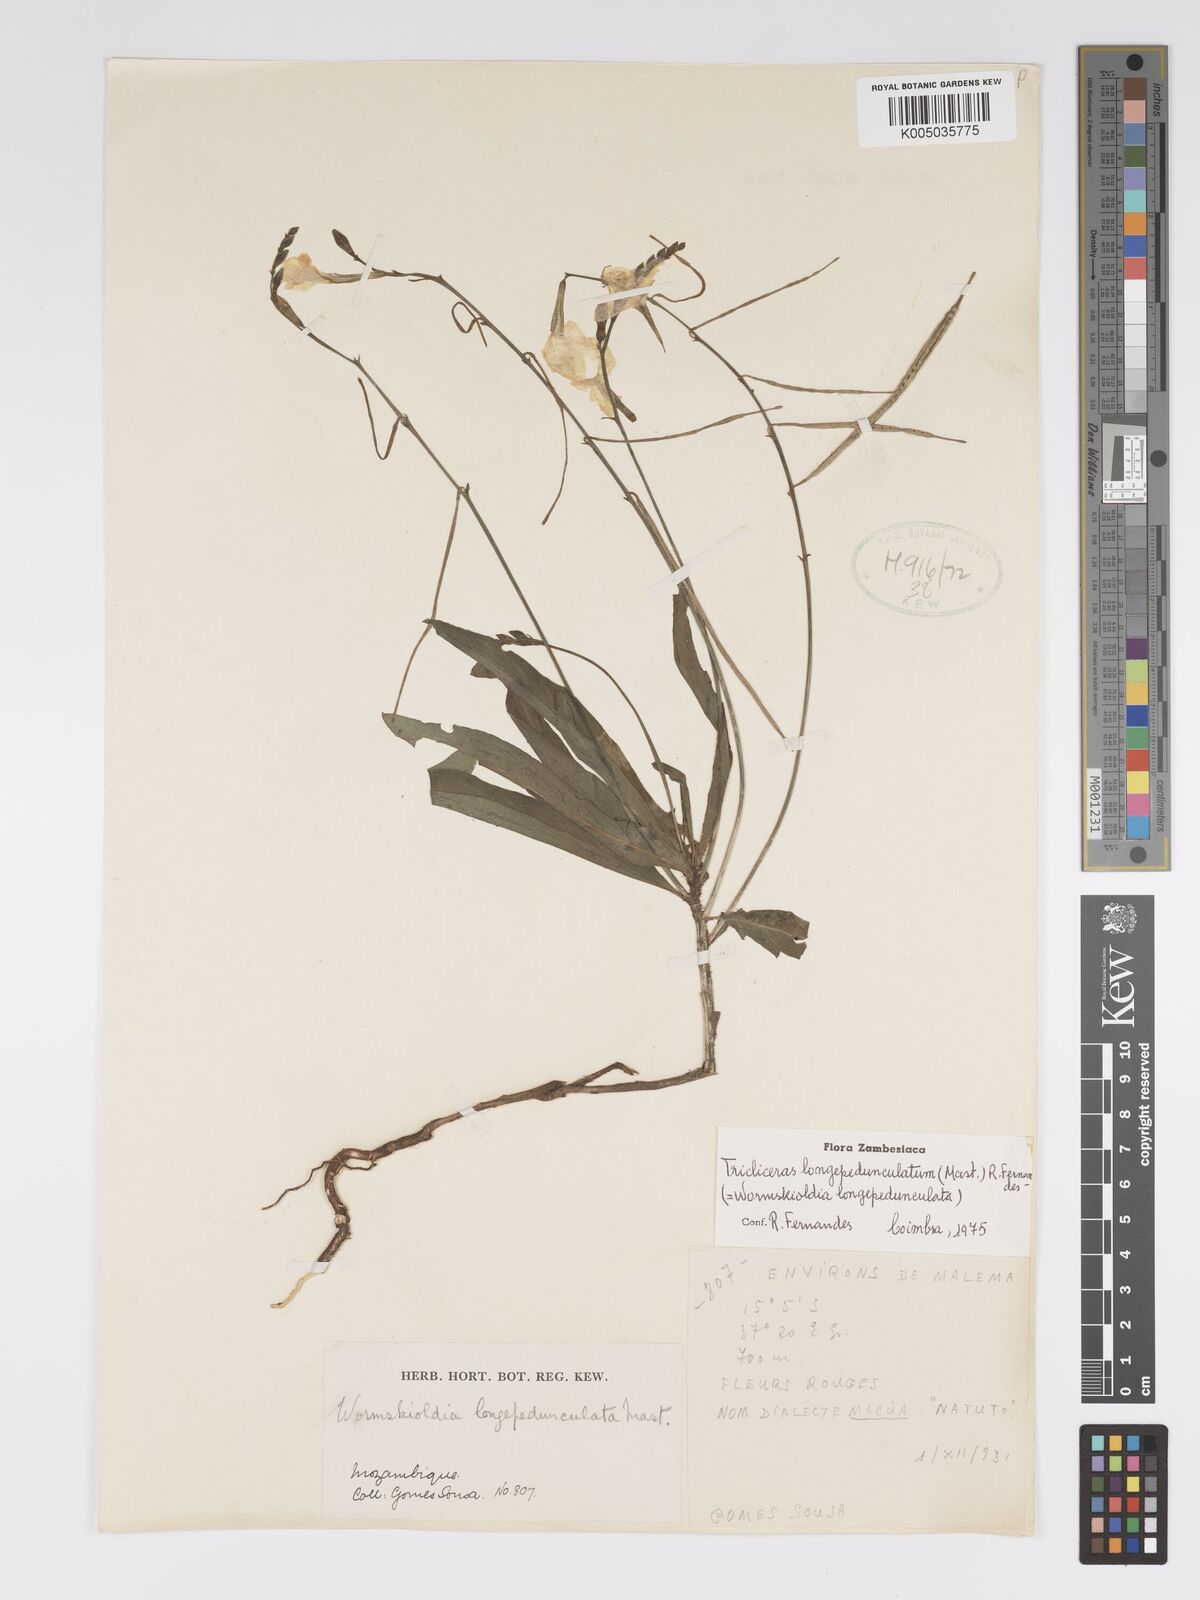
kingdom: Plantae
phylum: Tracheophyta
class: Magnoliopsida
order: Malpighiales
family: Turneraceae
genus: Tricliceras
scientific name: Tricliceras longepedunculatum
